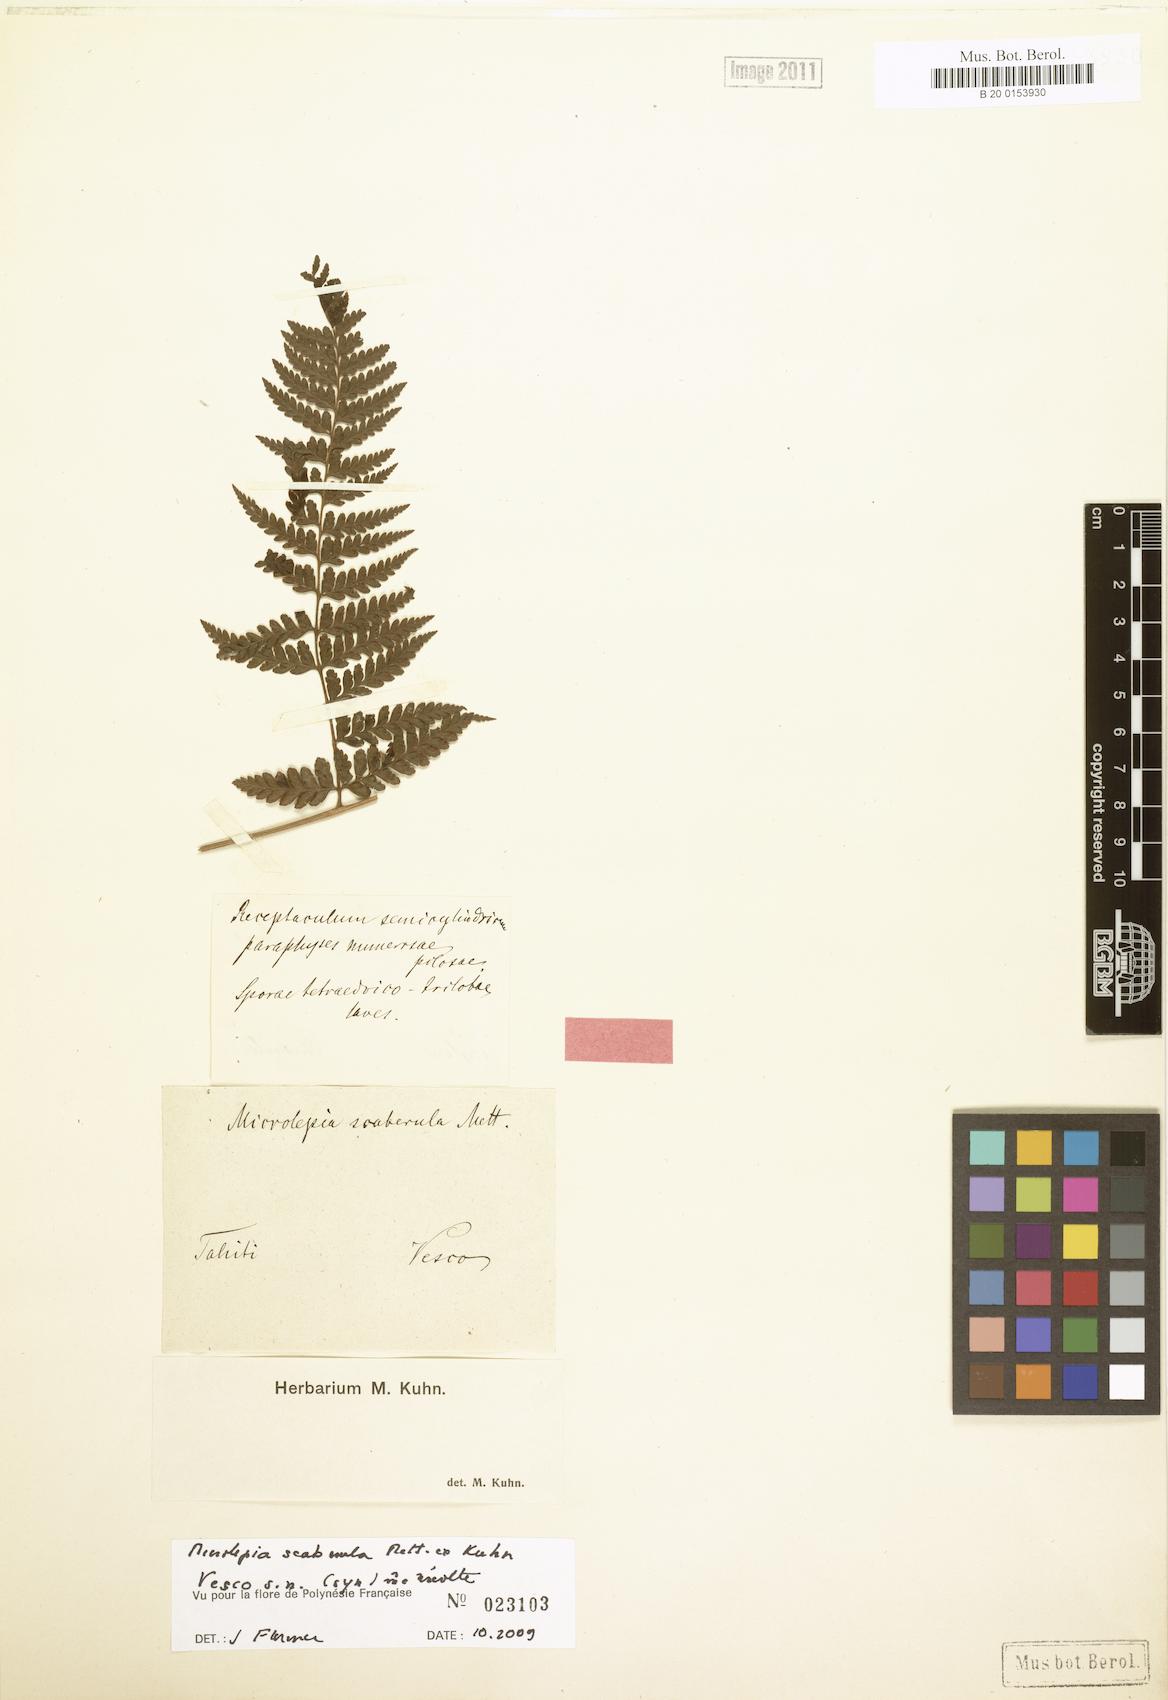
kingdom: Plantae
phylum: Tracheophyta
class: Polypodiopsida
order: Polypodiales
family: Dennstaedtiaceae
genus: Microlepia
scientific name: Microlepia scaberula
